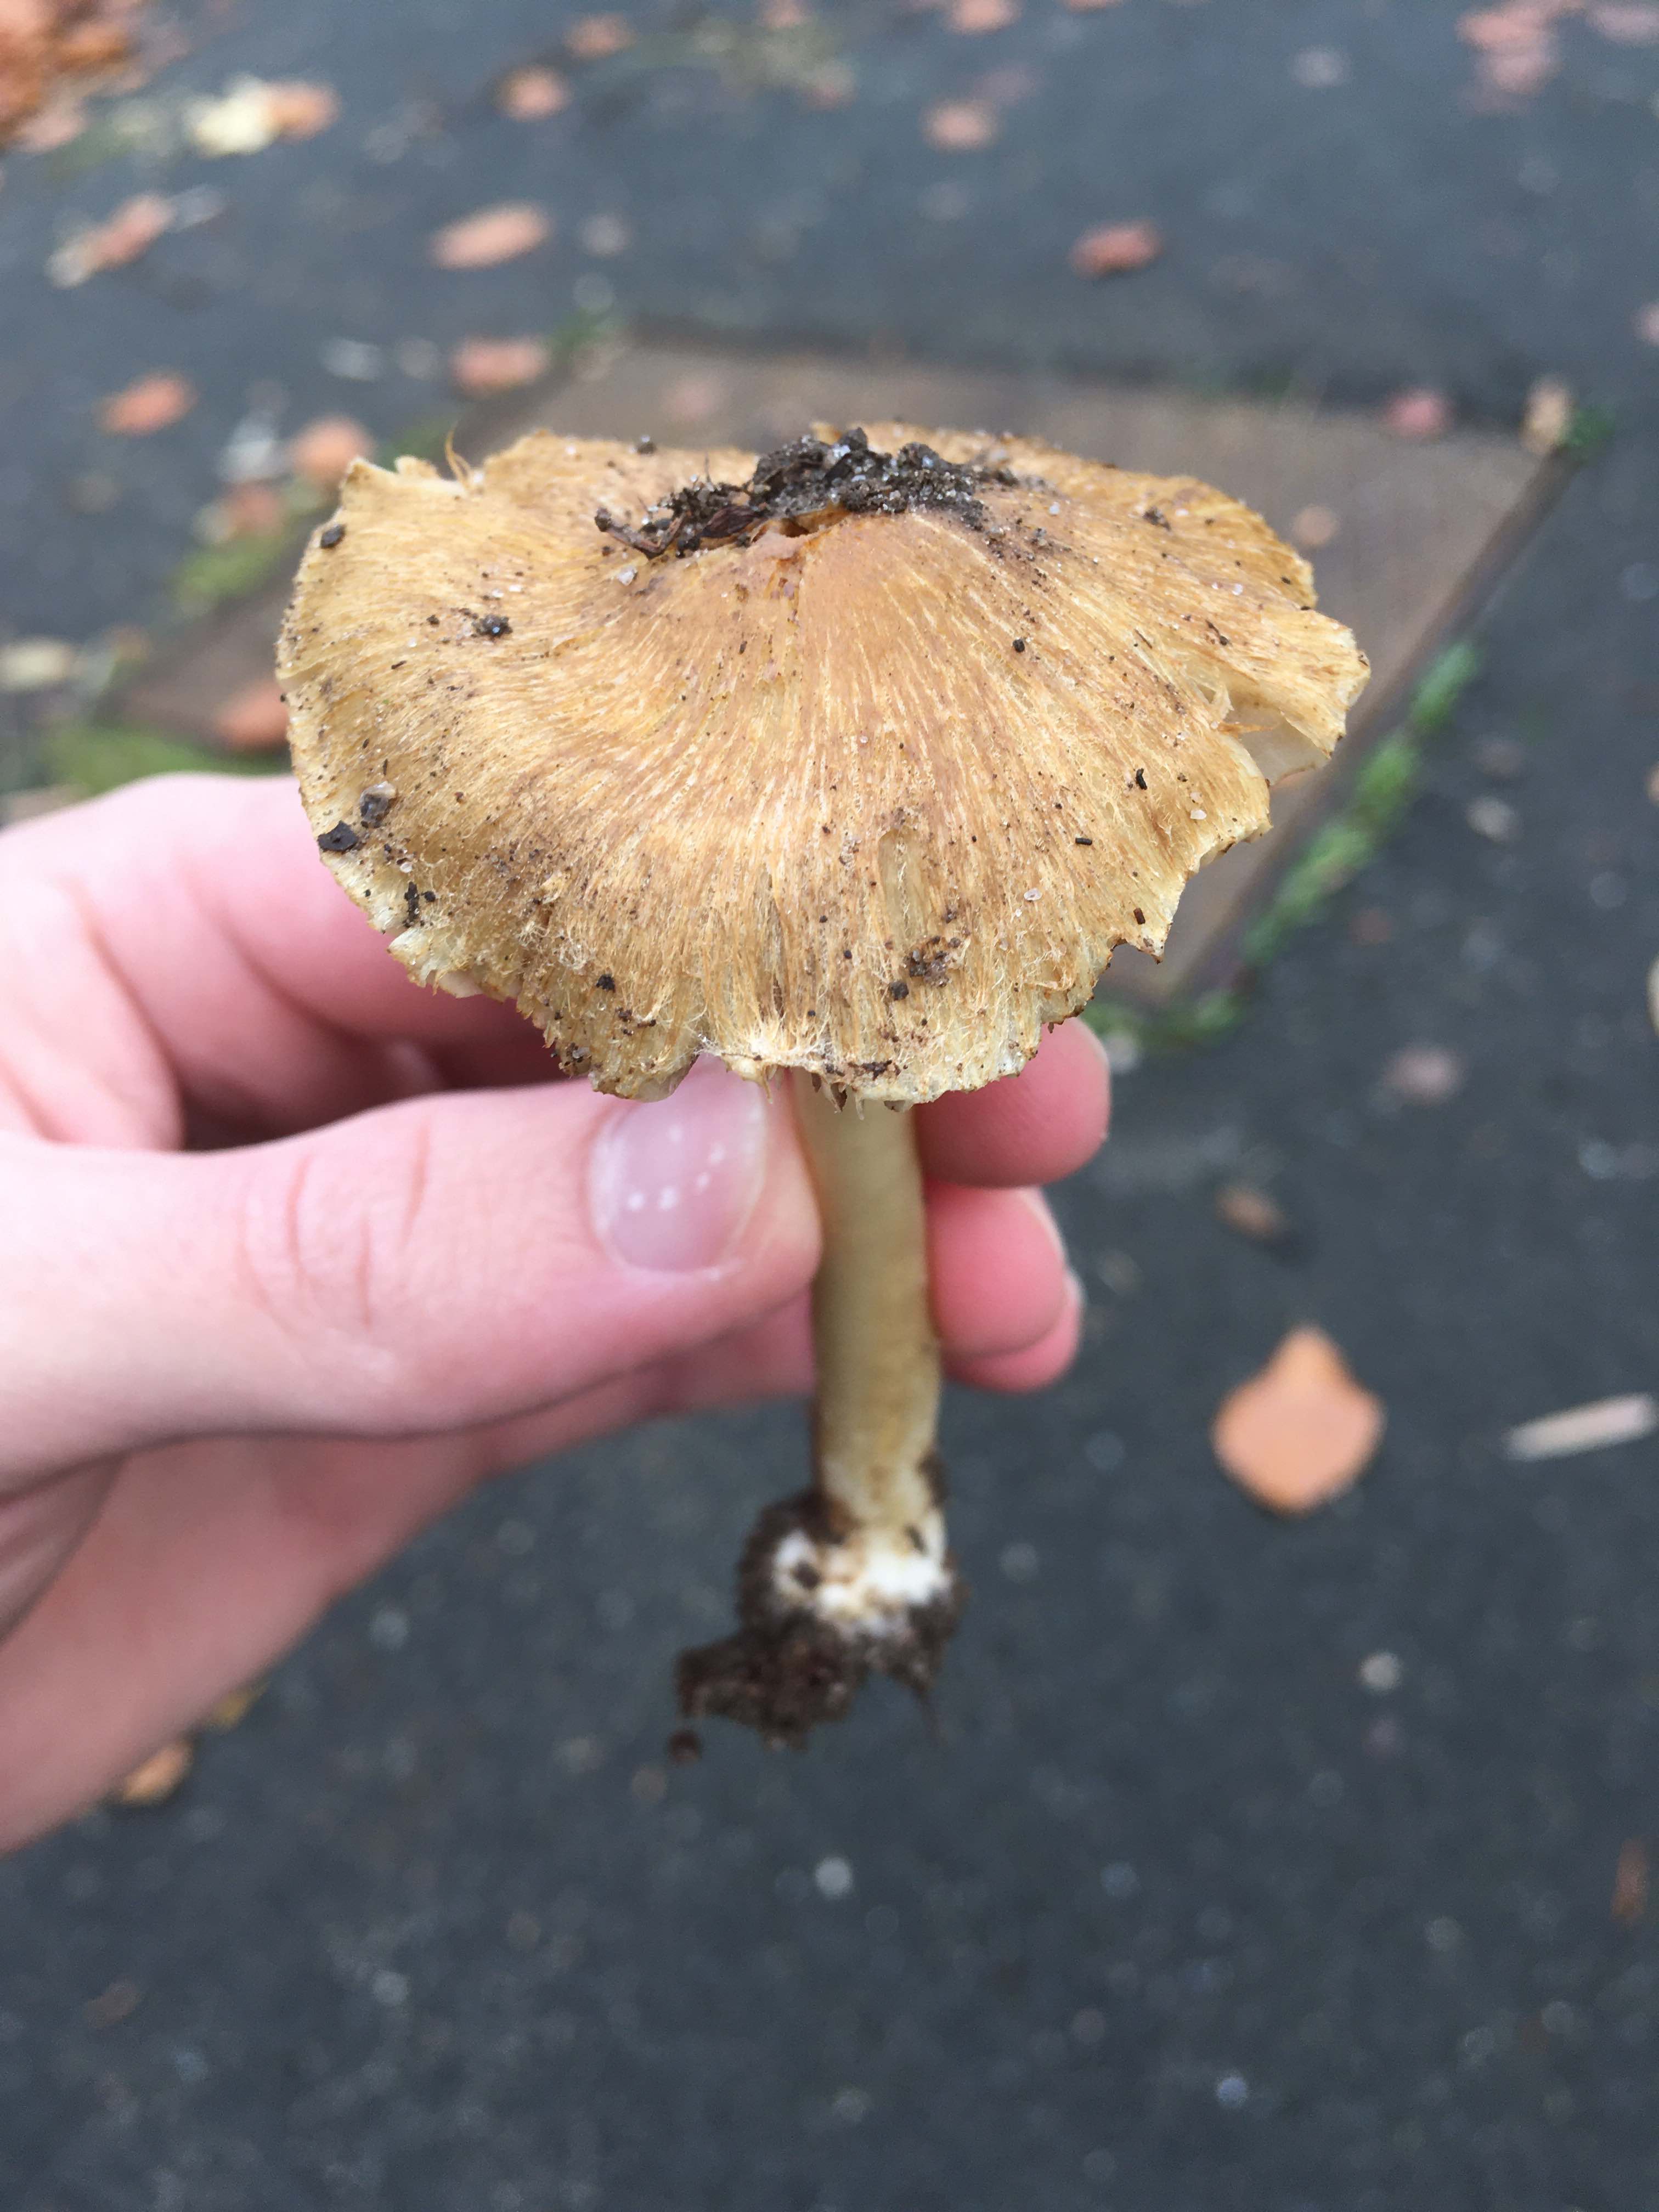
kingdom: Fungi
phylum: Basidiomycota
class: Agaricomycetes
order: Agaricales
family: Inocybaceae
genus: Inocybe
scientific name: Inocybe
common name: trævlhat
